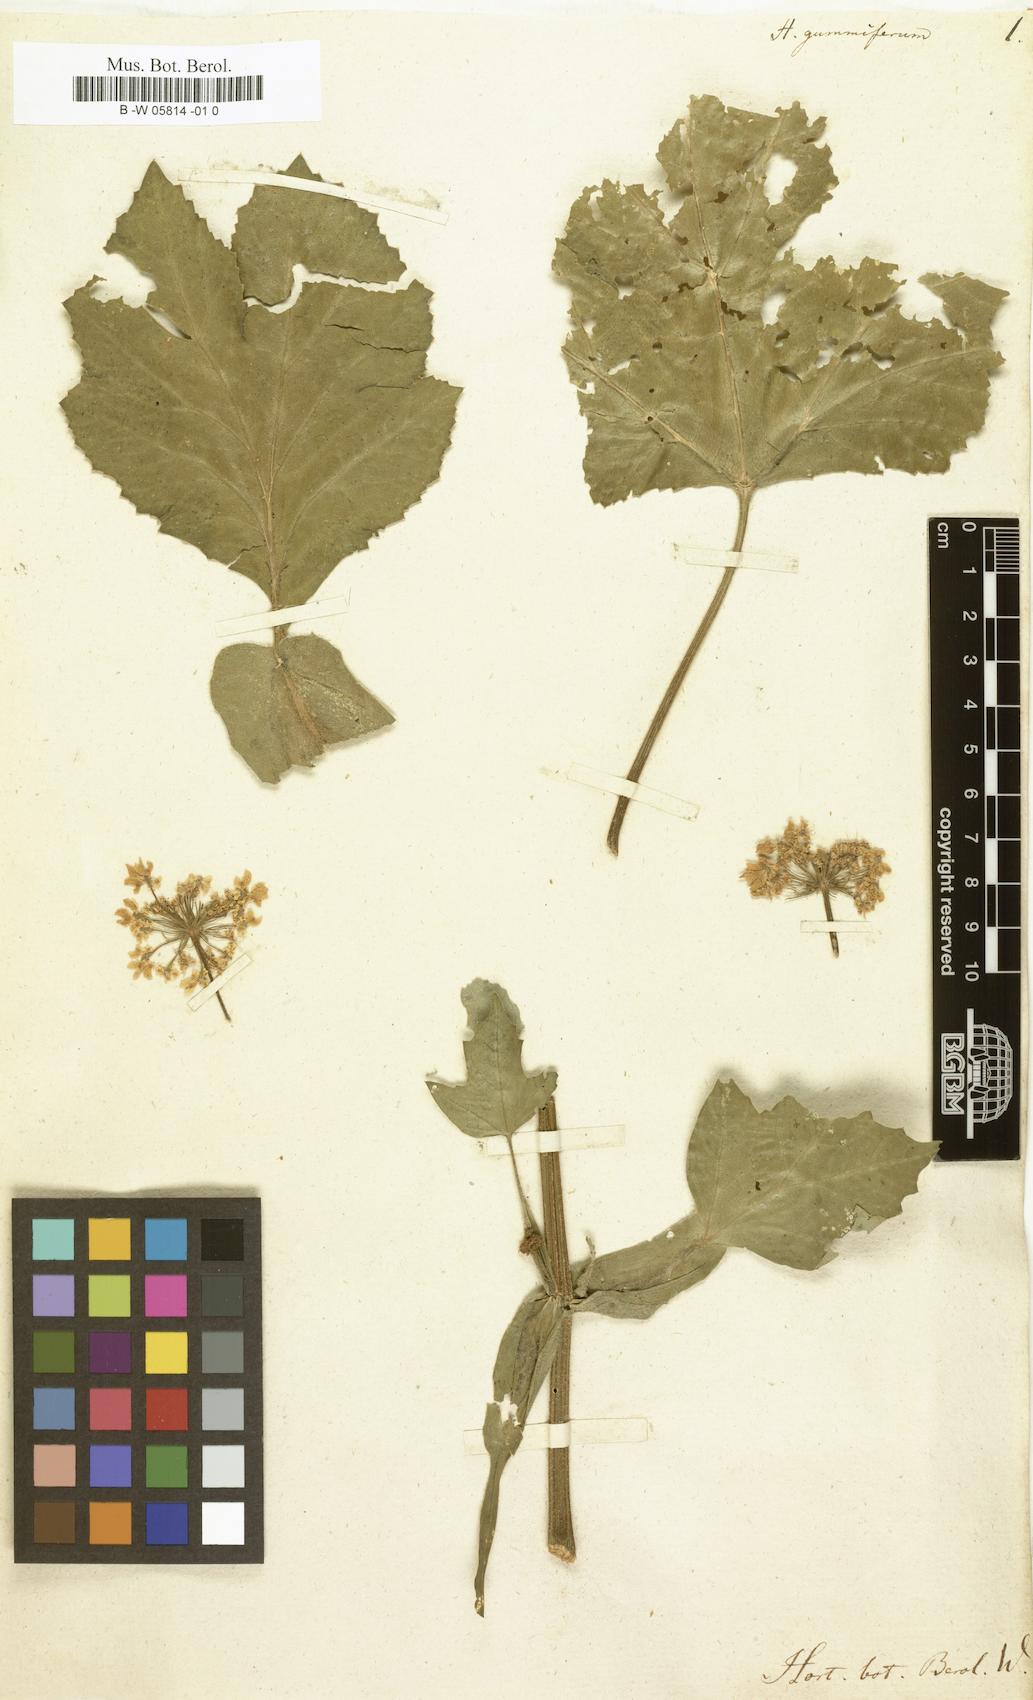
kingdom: Plantae
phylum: Tracheophyta
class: Magnoliopsida
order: Apiales
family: Apiaceae
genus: Heracleum
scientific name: Heracleum pubescens
